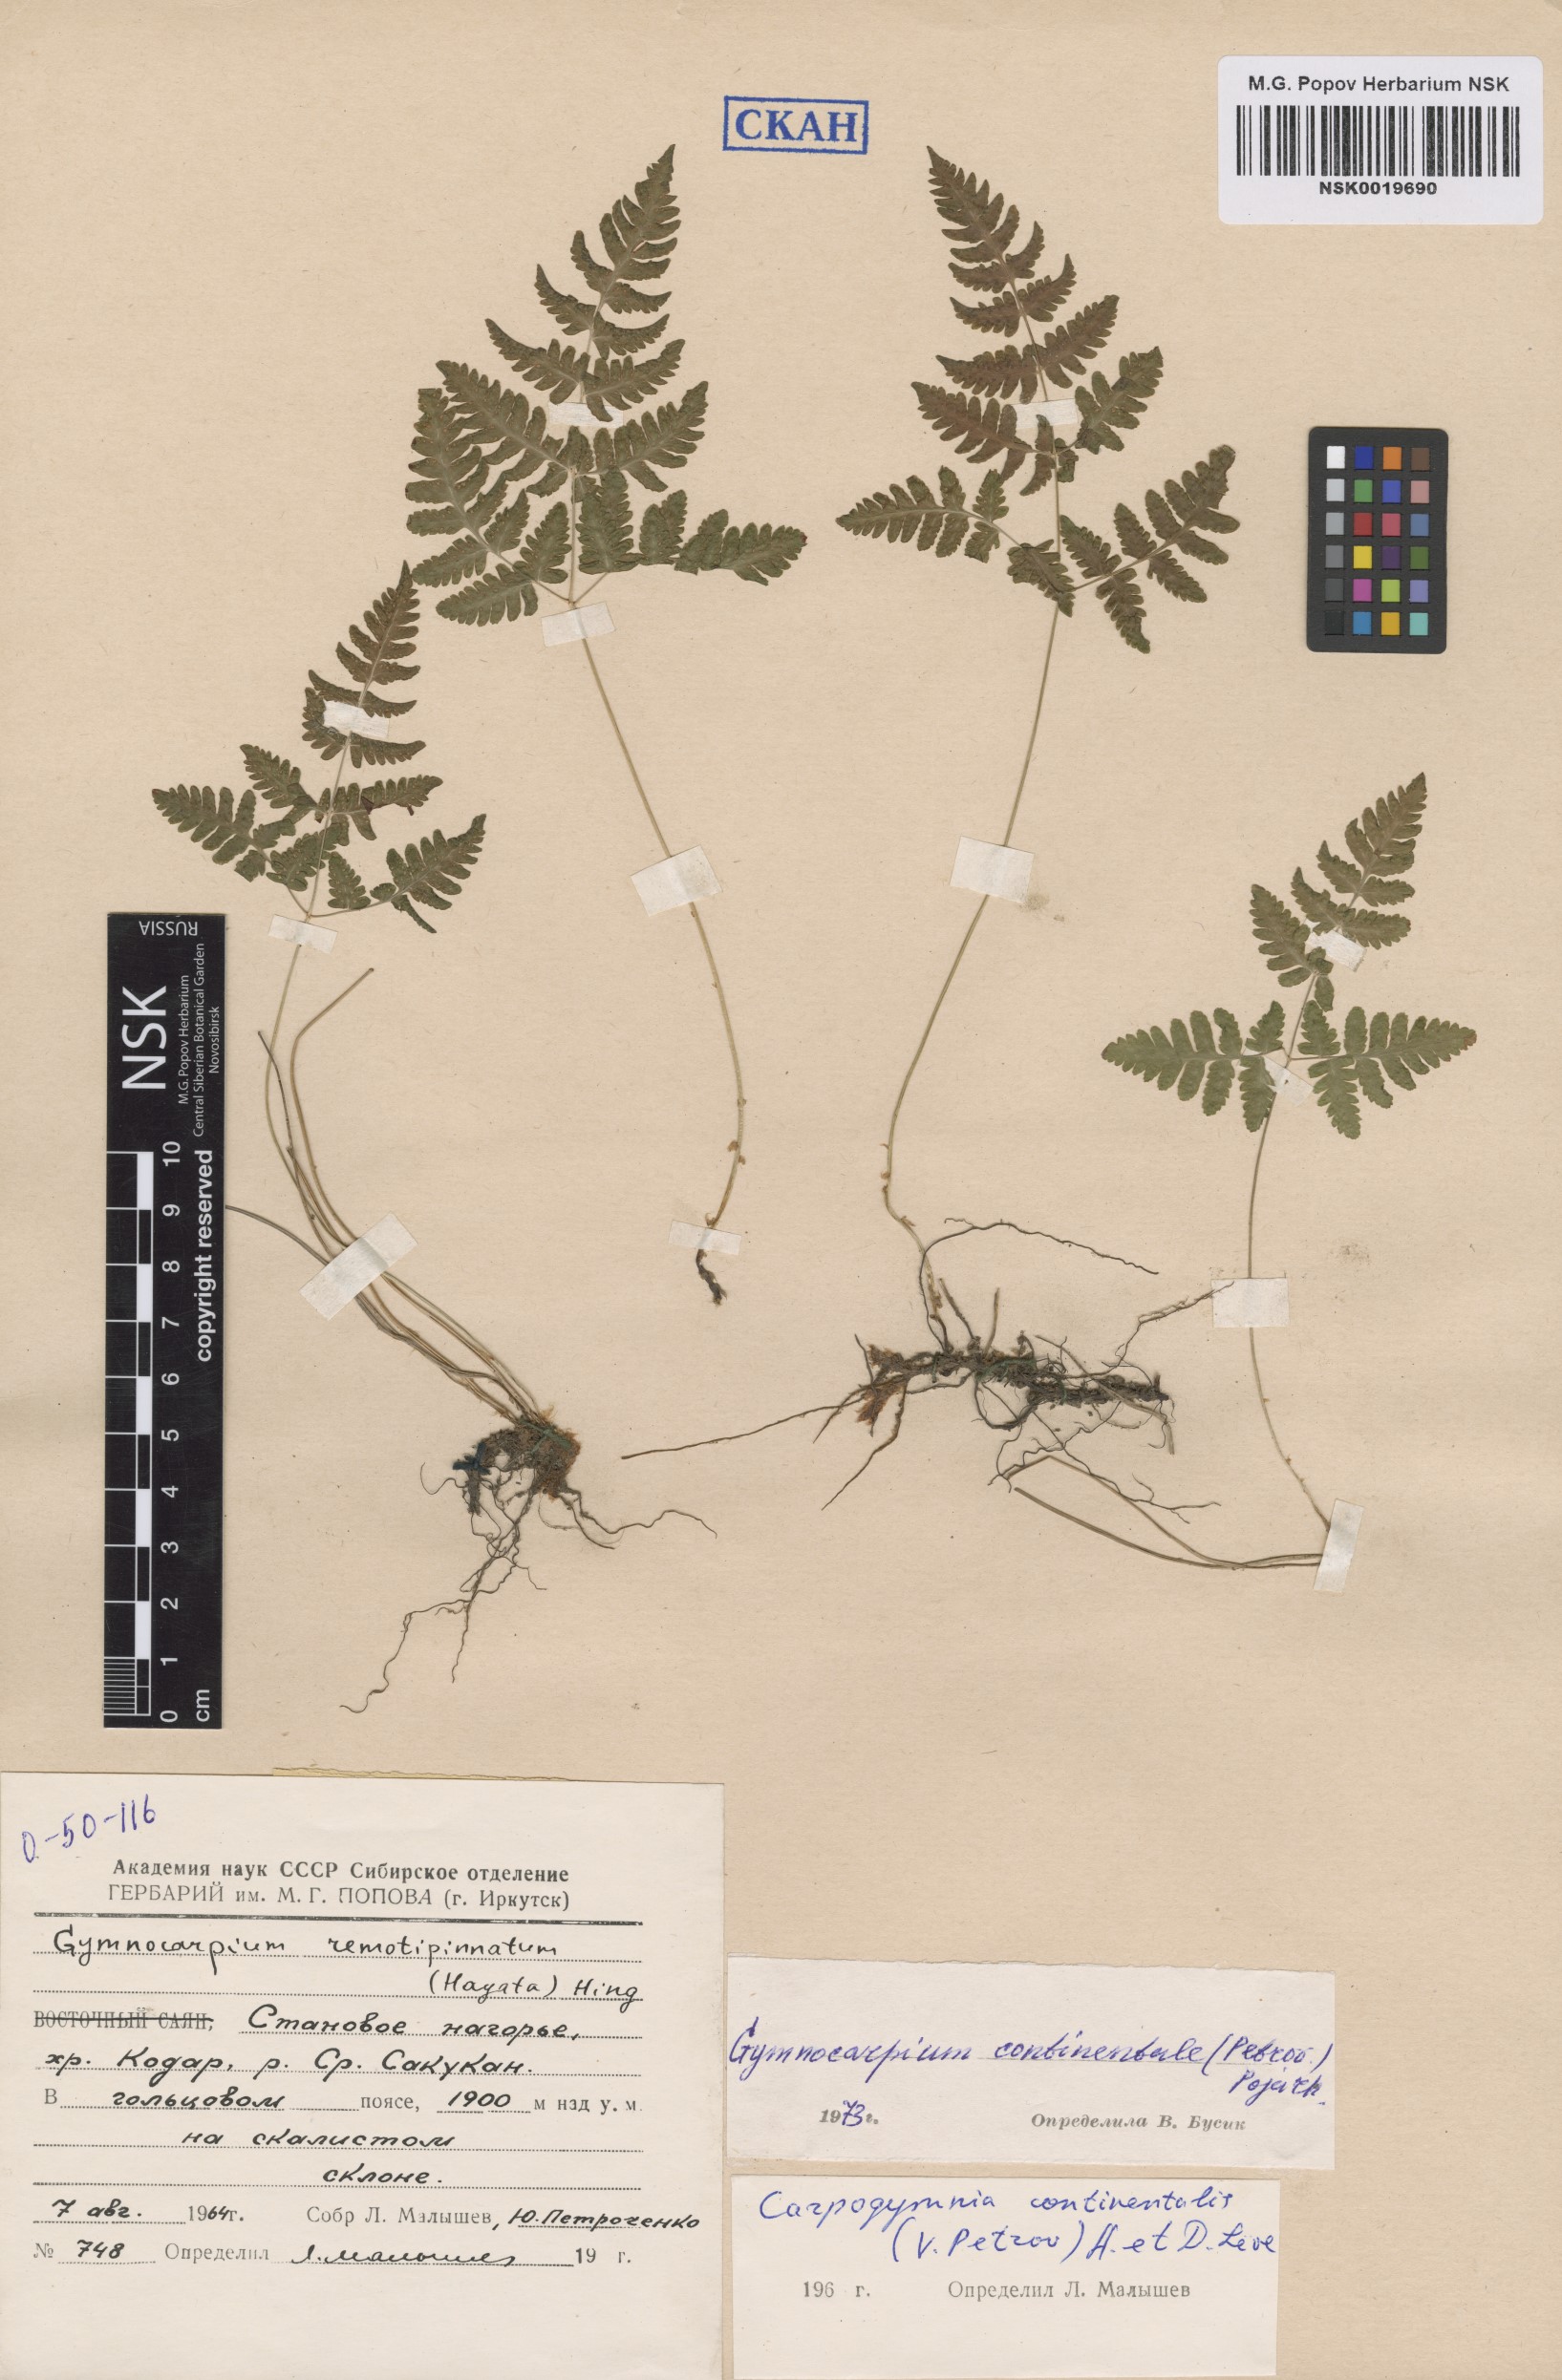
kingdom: Plantae
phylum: Tracheophyta
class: Polypodiopsida
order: Polypodiales
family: Cystopteridaceae
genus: Gymnocarpium
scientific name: Gymnocarpium continentale
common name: Asian oak fern
